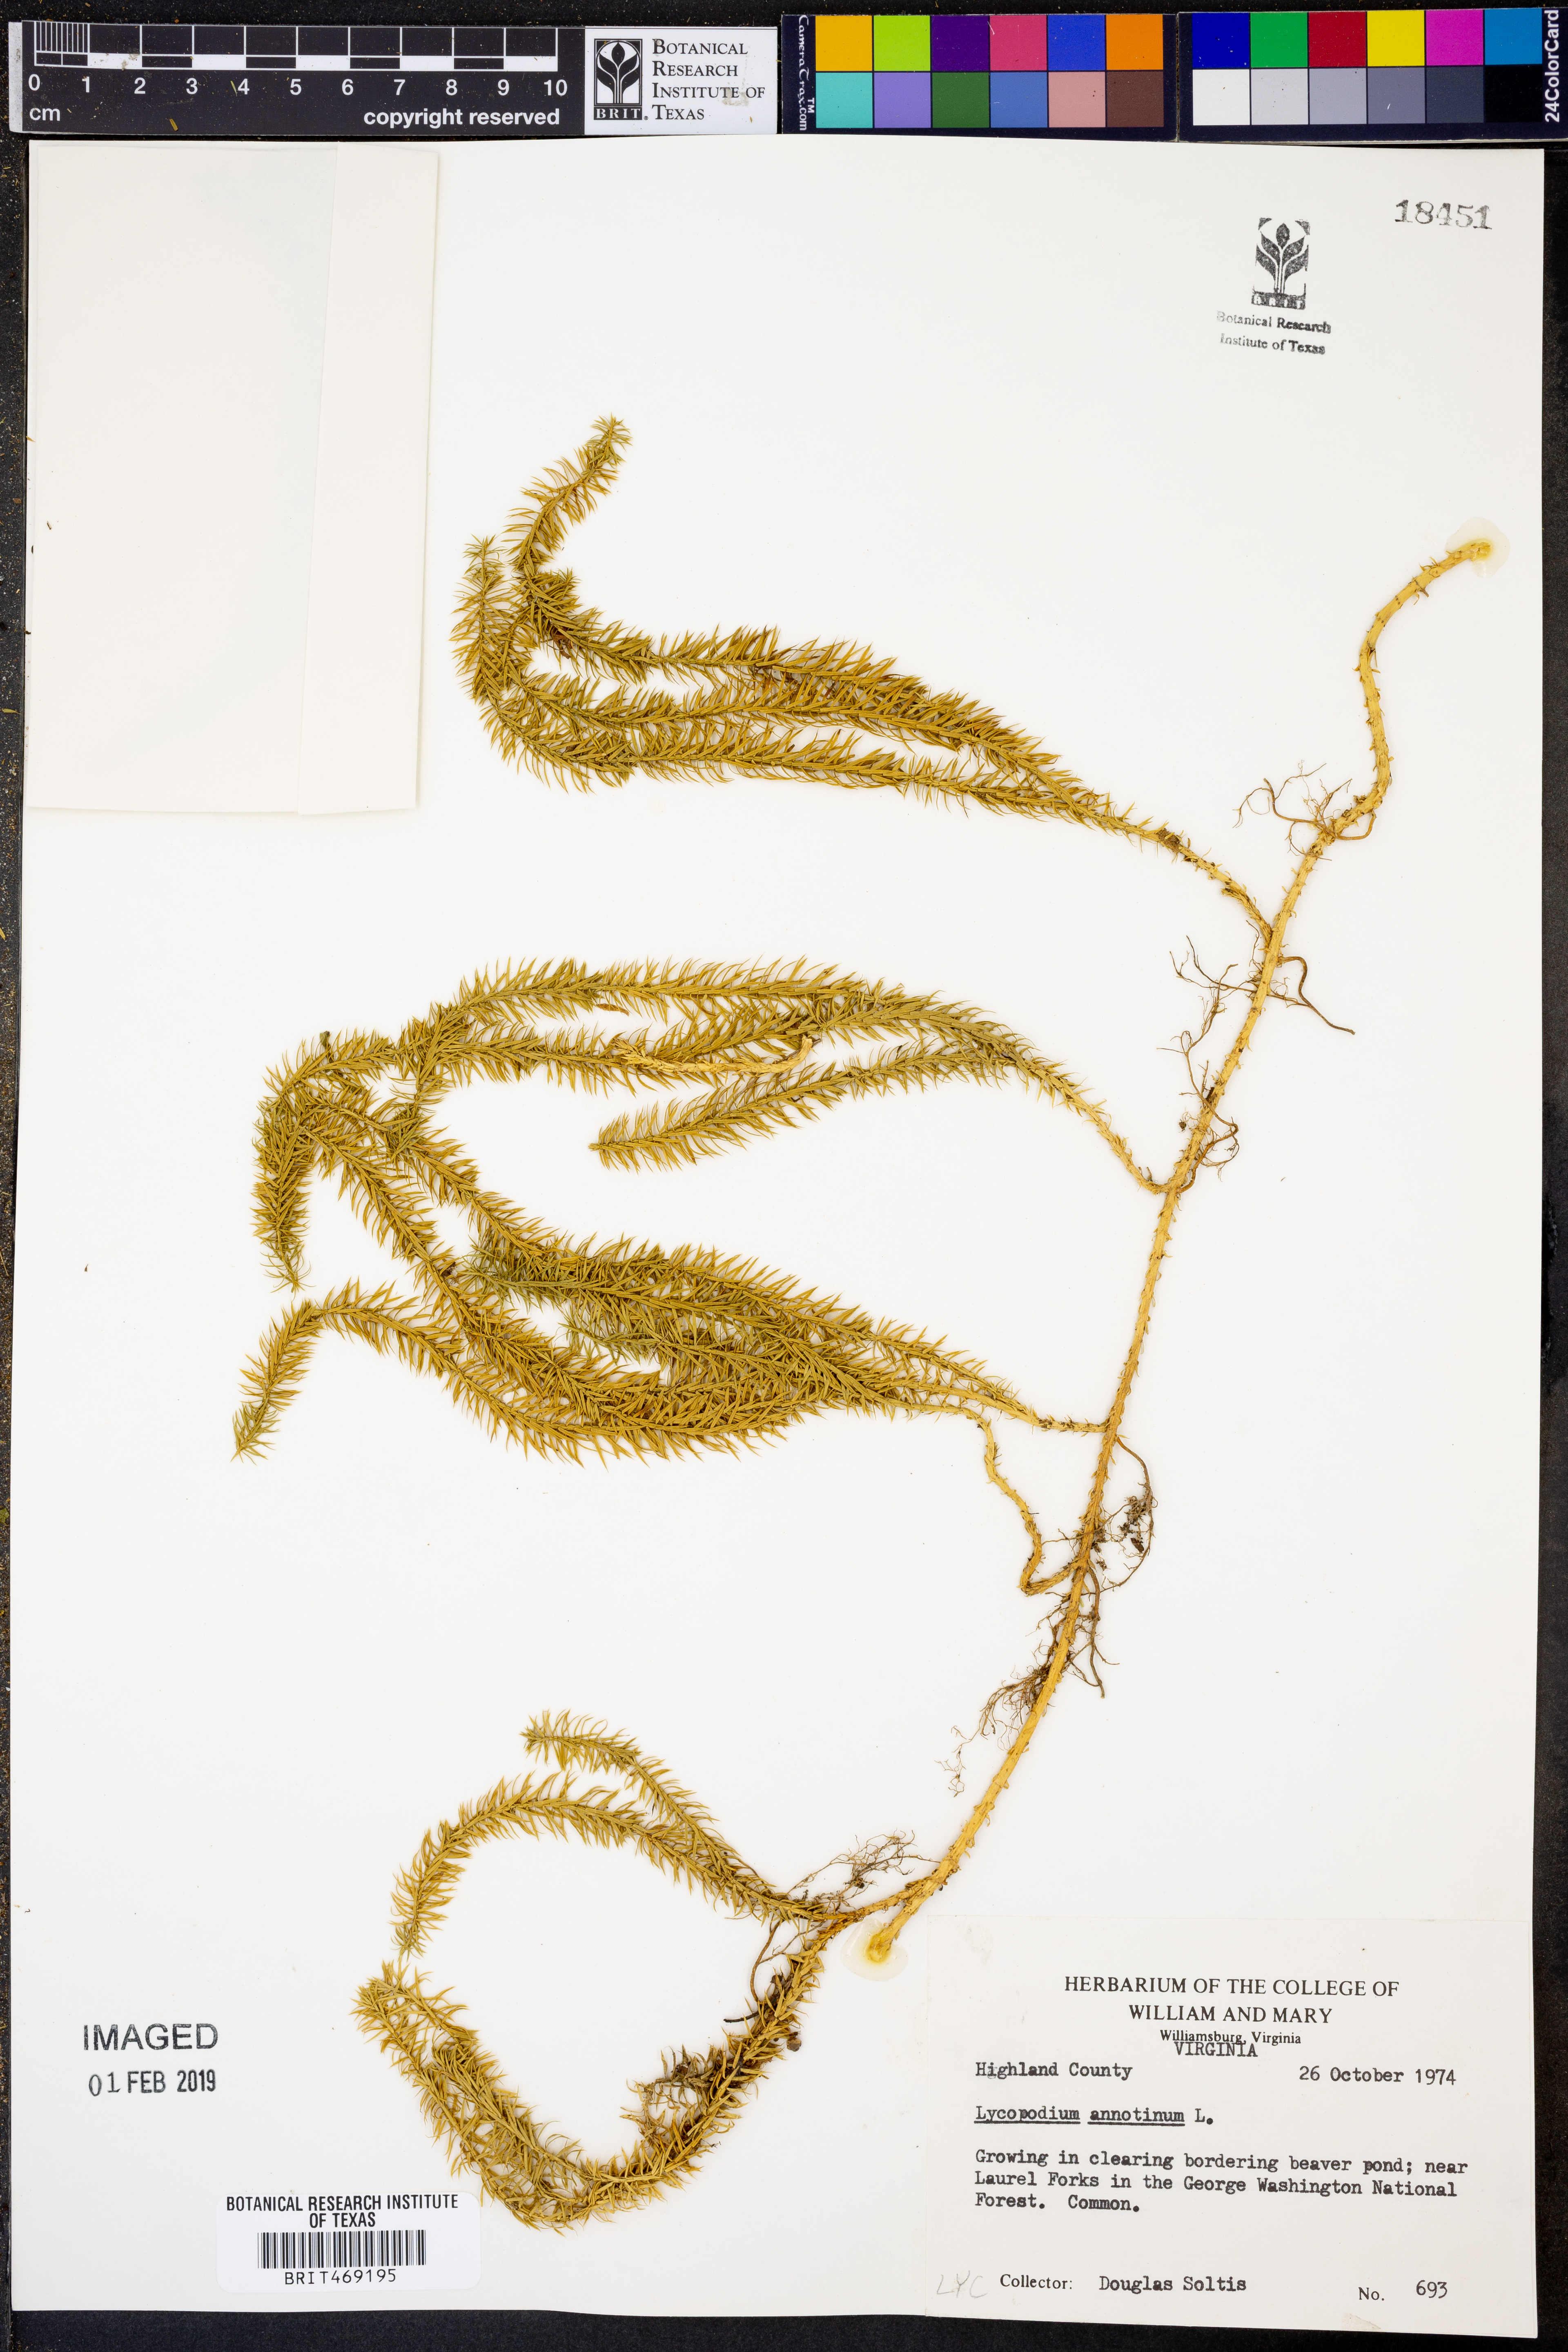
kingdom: Plantae
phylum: Tracheophyta
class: Lycopodiopsida
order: Lycopodiales
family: Lycopodiaceae
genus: Spinulum
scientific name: Spinulum annotinum
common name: Interrupted club-moss
